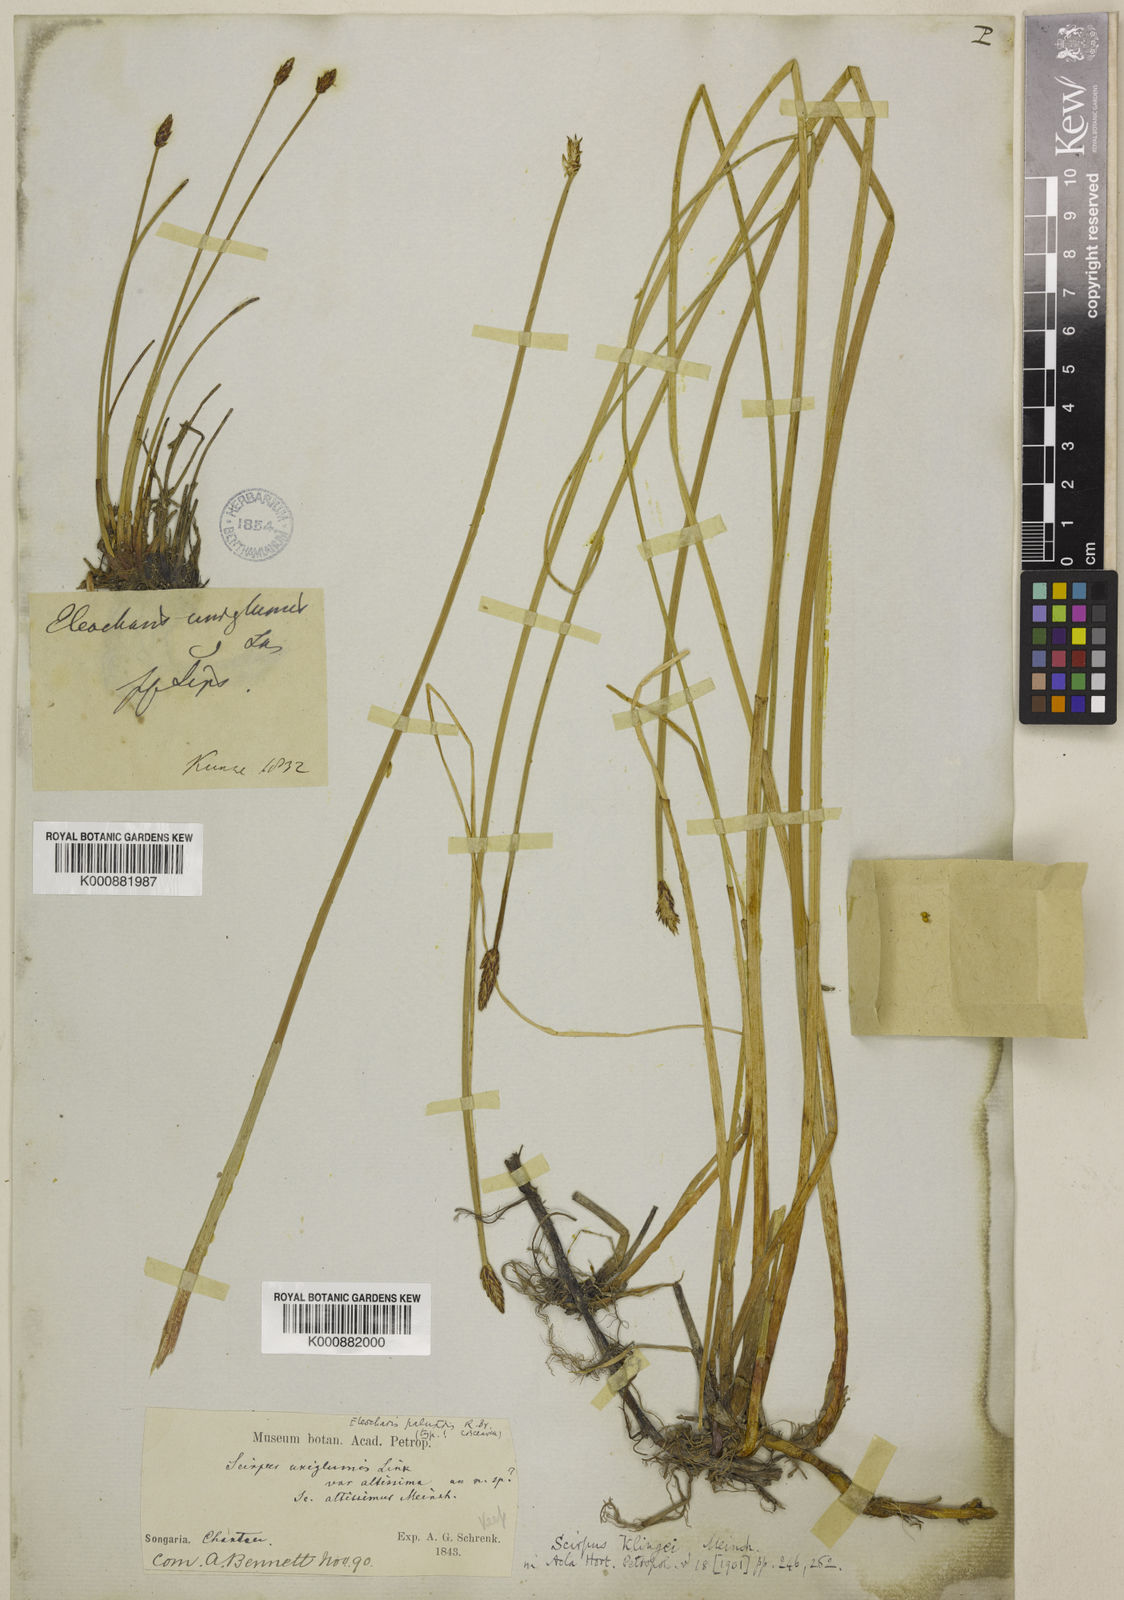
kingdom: Plantae
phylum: Tracheophyta
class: Liliopsida
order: Poales
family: Cyperaceae
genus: Eleocharis
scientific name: Eleocharis palustris
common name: Common spike-rush
